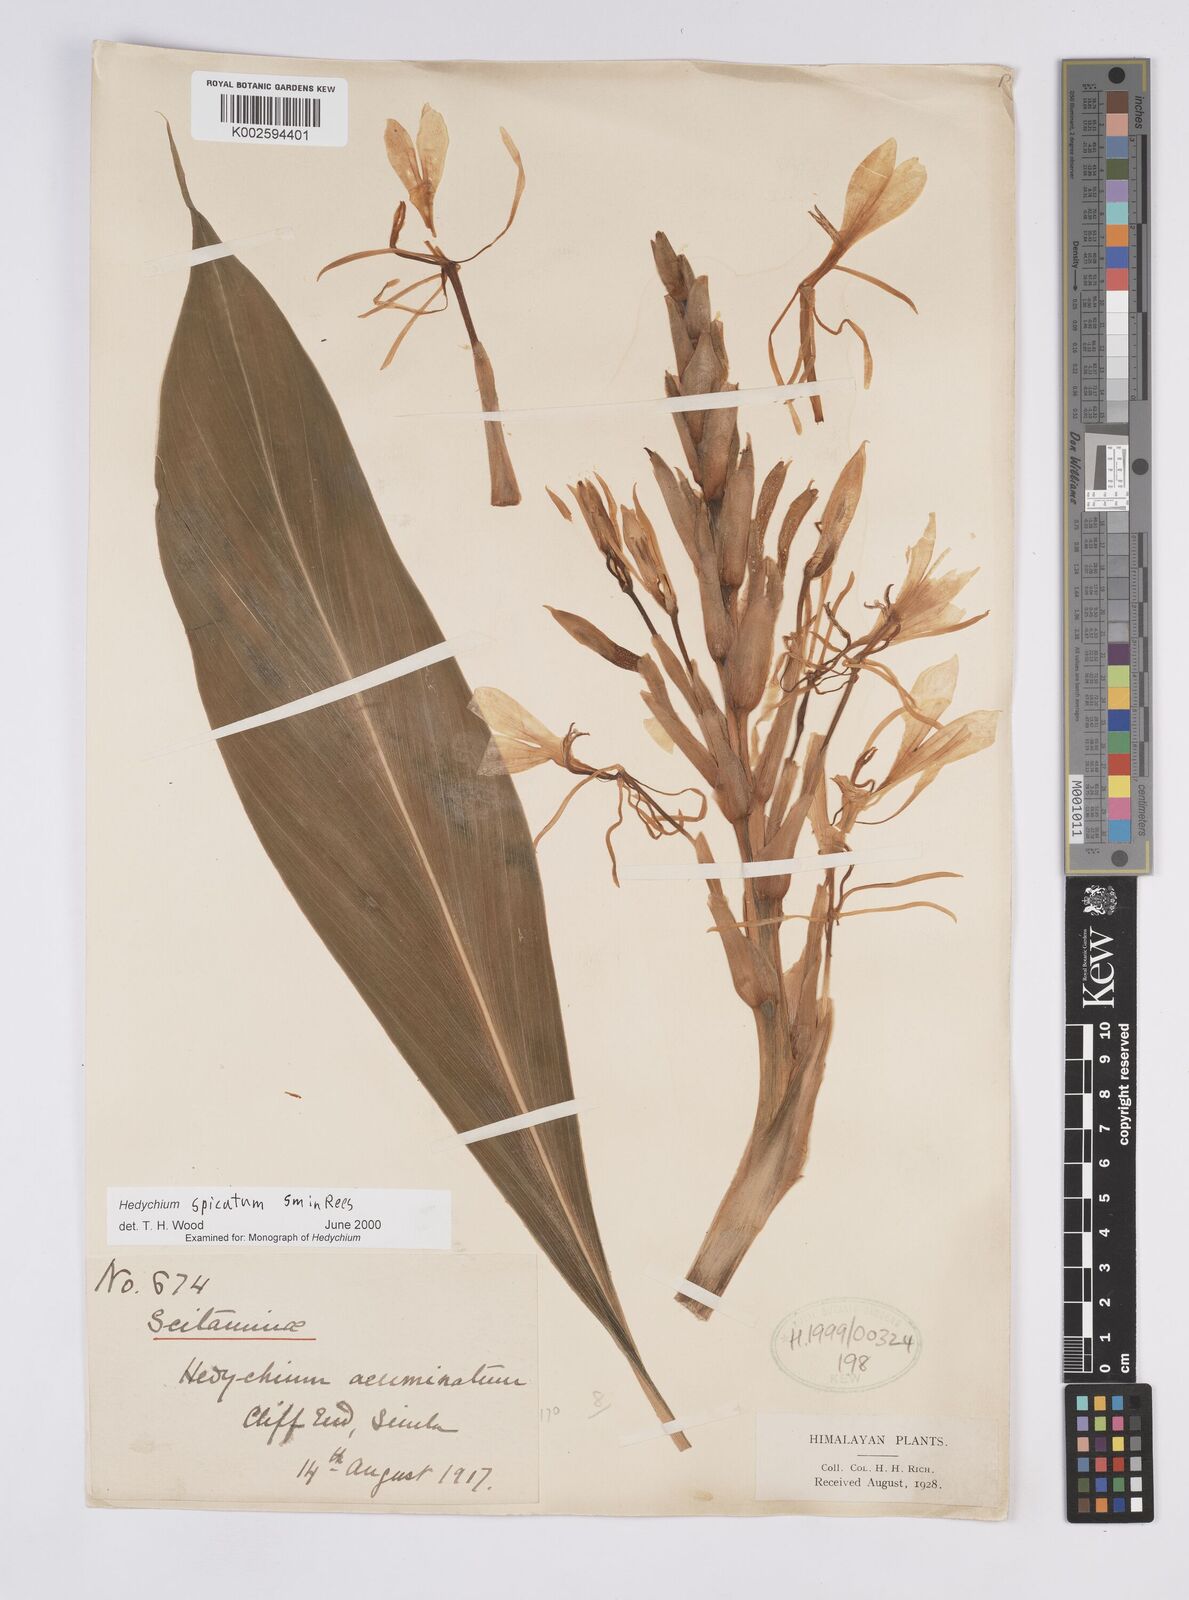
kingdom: Plantae
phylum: Tracheophyta
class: Liliopsida
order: Zingiberales
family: Zingiberaceae
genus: Hedychium
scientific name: Hedychium spicatum
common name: Spiked ginger-lily
